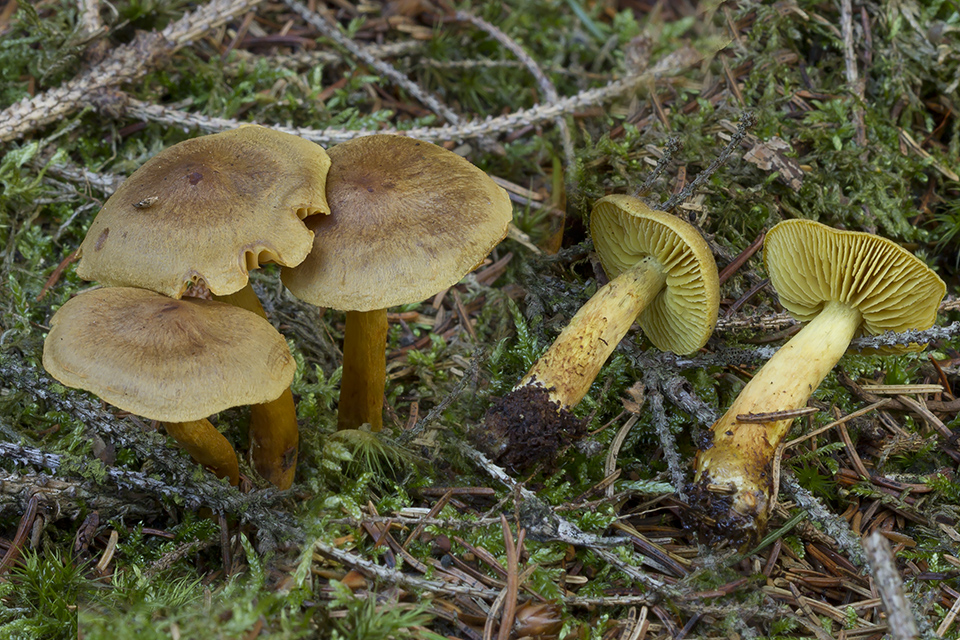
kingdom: Fungi
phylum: Basidiomycota
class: Agaricomycetes
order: Agaricales
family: Cortinariaceae
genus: Cortinarius
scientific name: Cortinarius amici-mei
